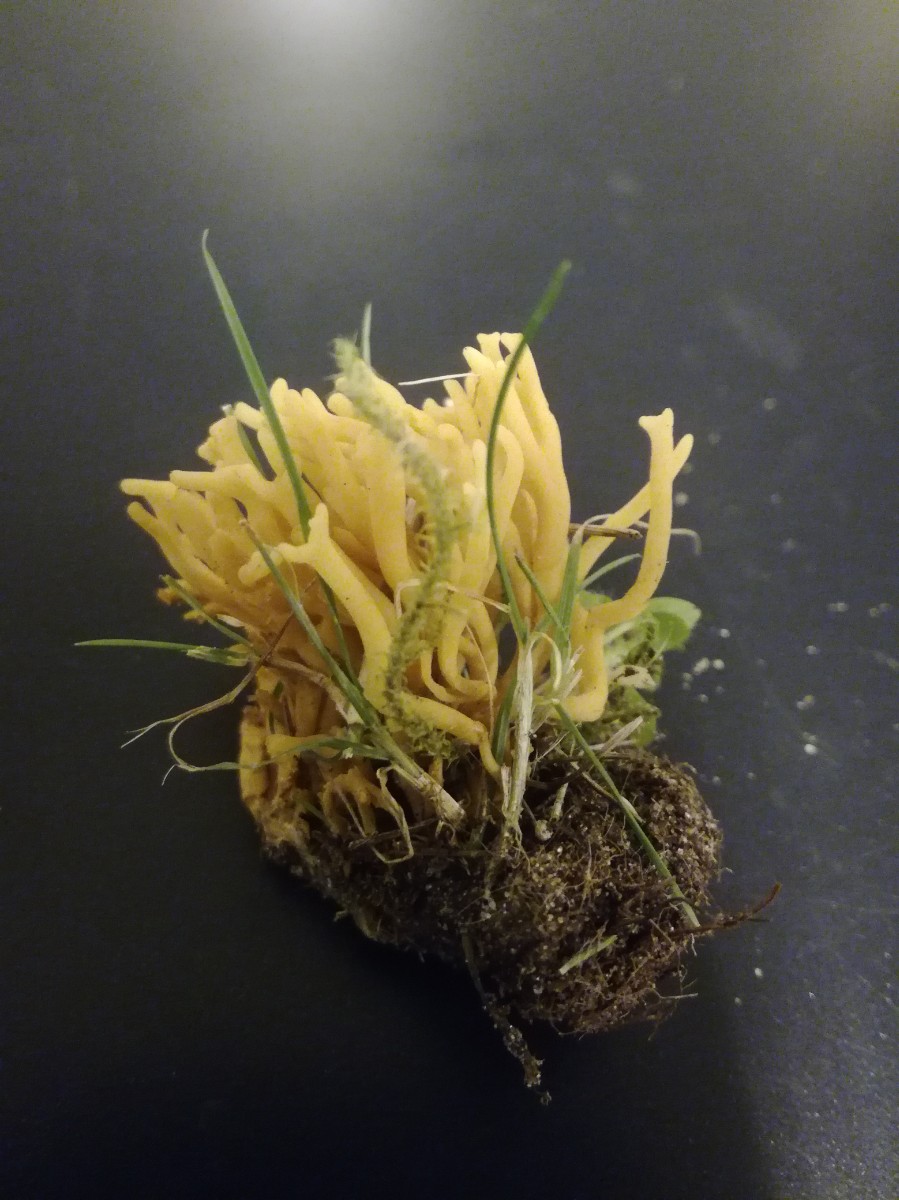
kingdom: Fungi
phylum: Basidiomycota
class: Agaricomycetes
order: Agaricales
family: Clavariaceae
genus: Clavulinopsis
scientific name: Clavulinopsis corniculata
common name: eng-køllesvamp
